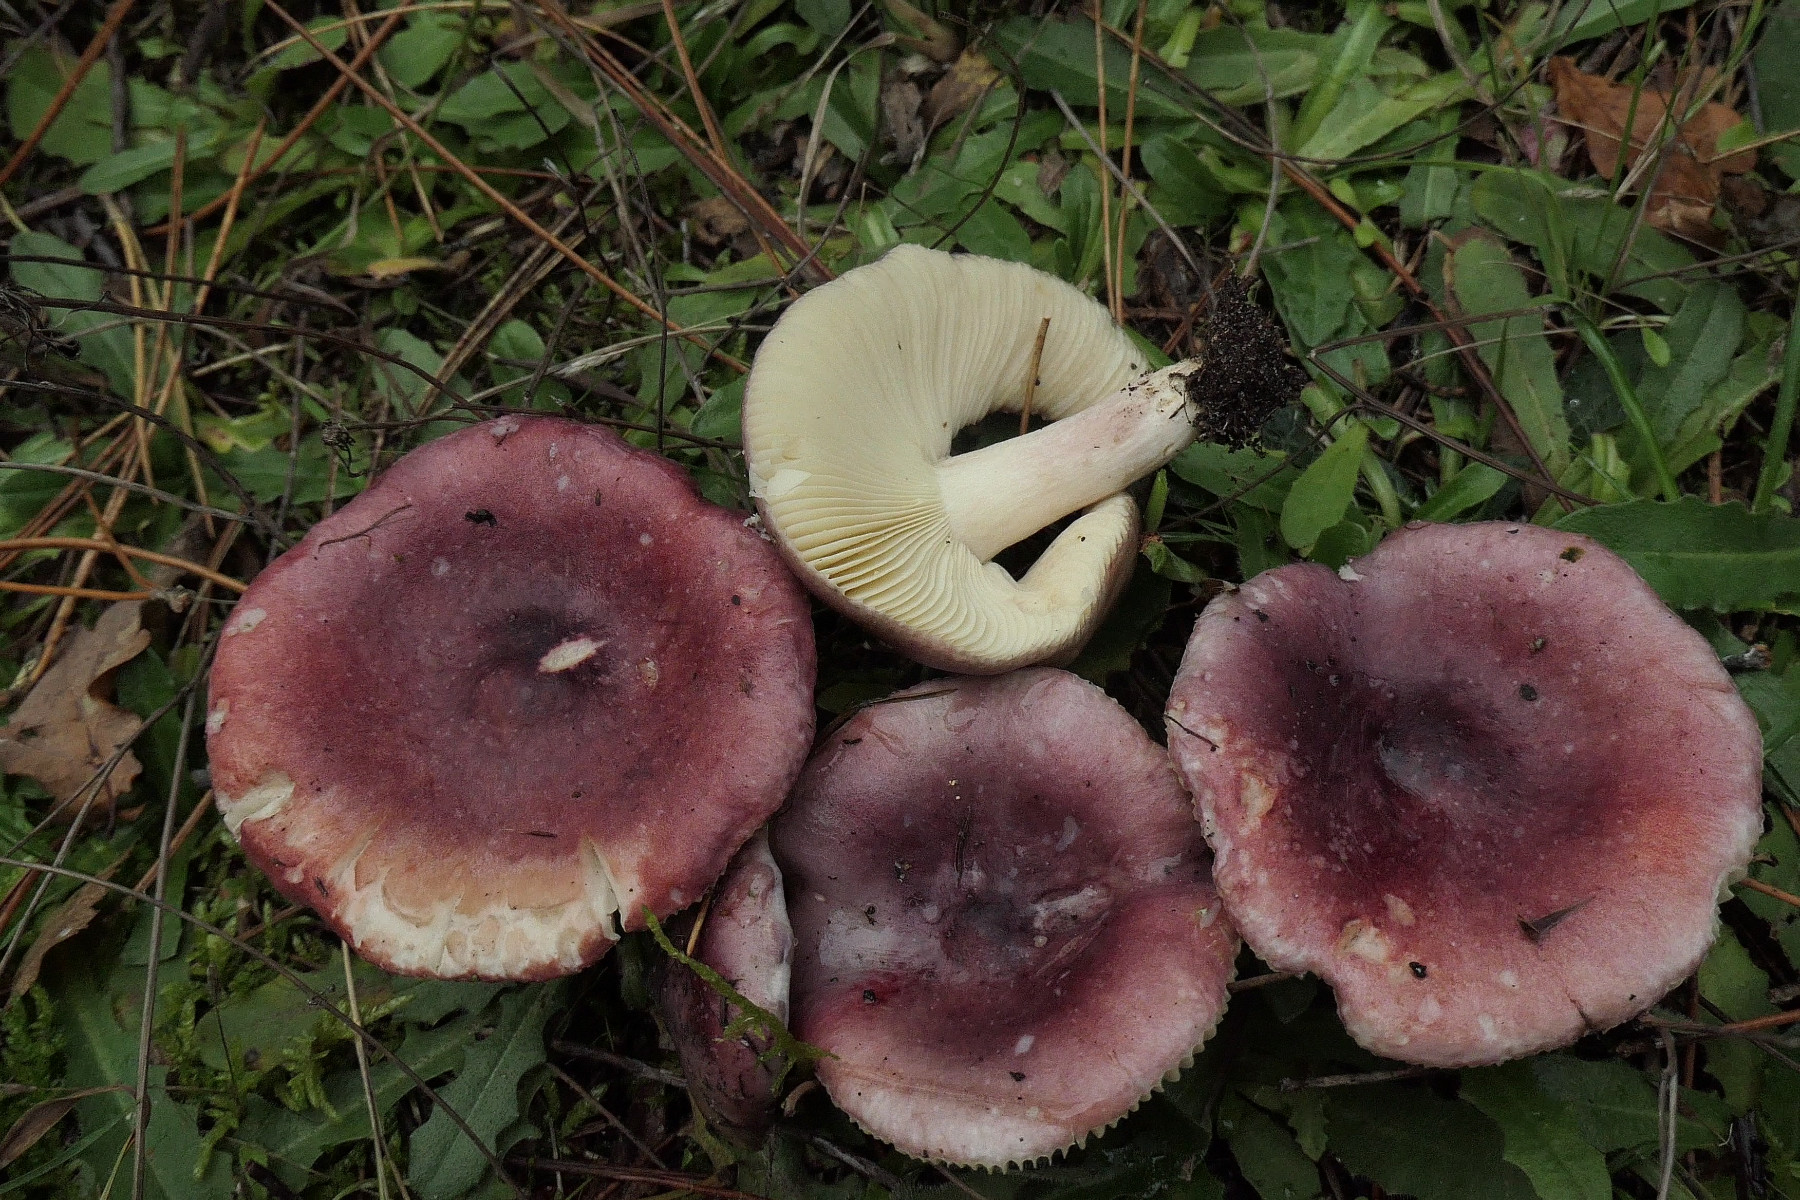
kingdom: Fungi
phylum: Basidiomycota
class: Agaricomycetes
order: Russulales
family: Russulaceae
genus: Russula
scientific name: Russula sardonia
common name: citronbladet skørhat
